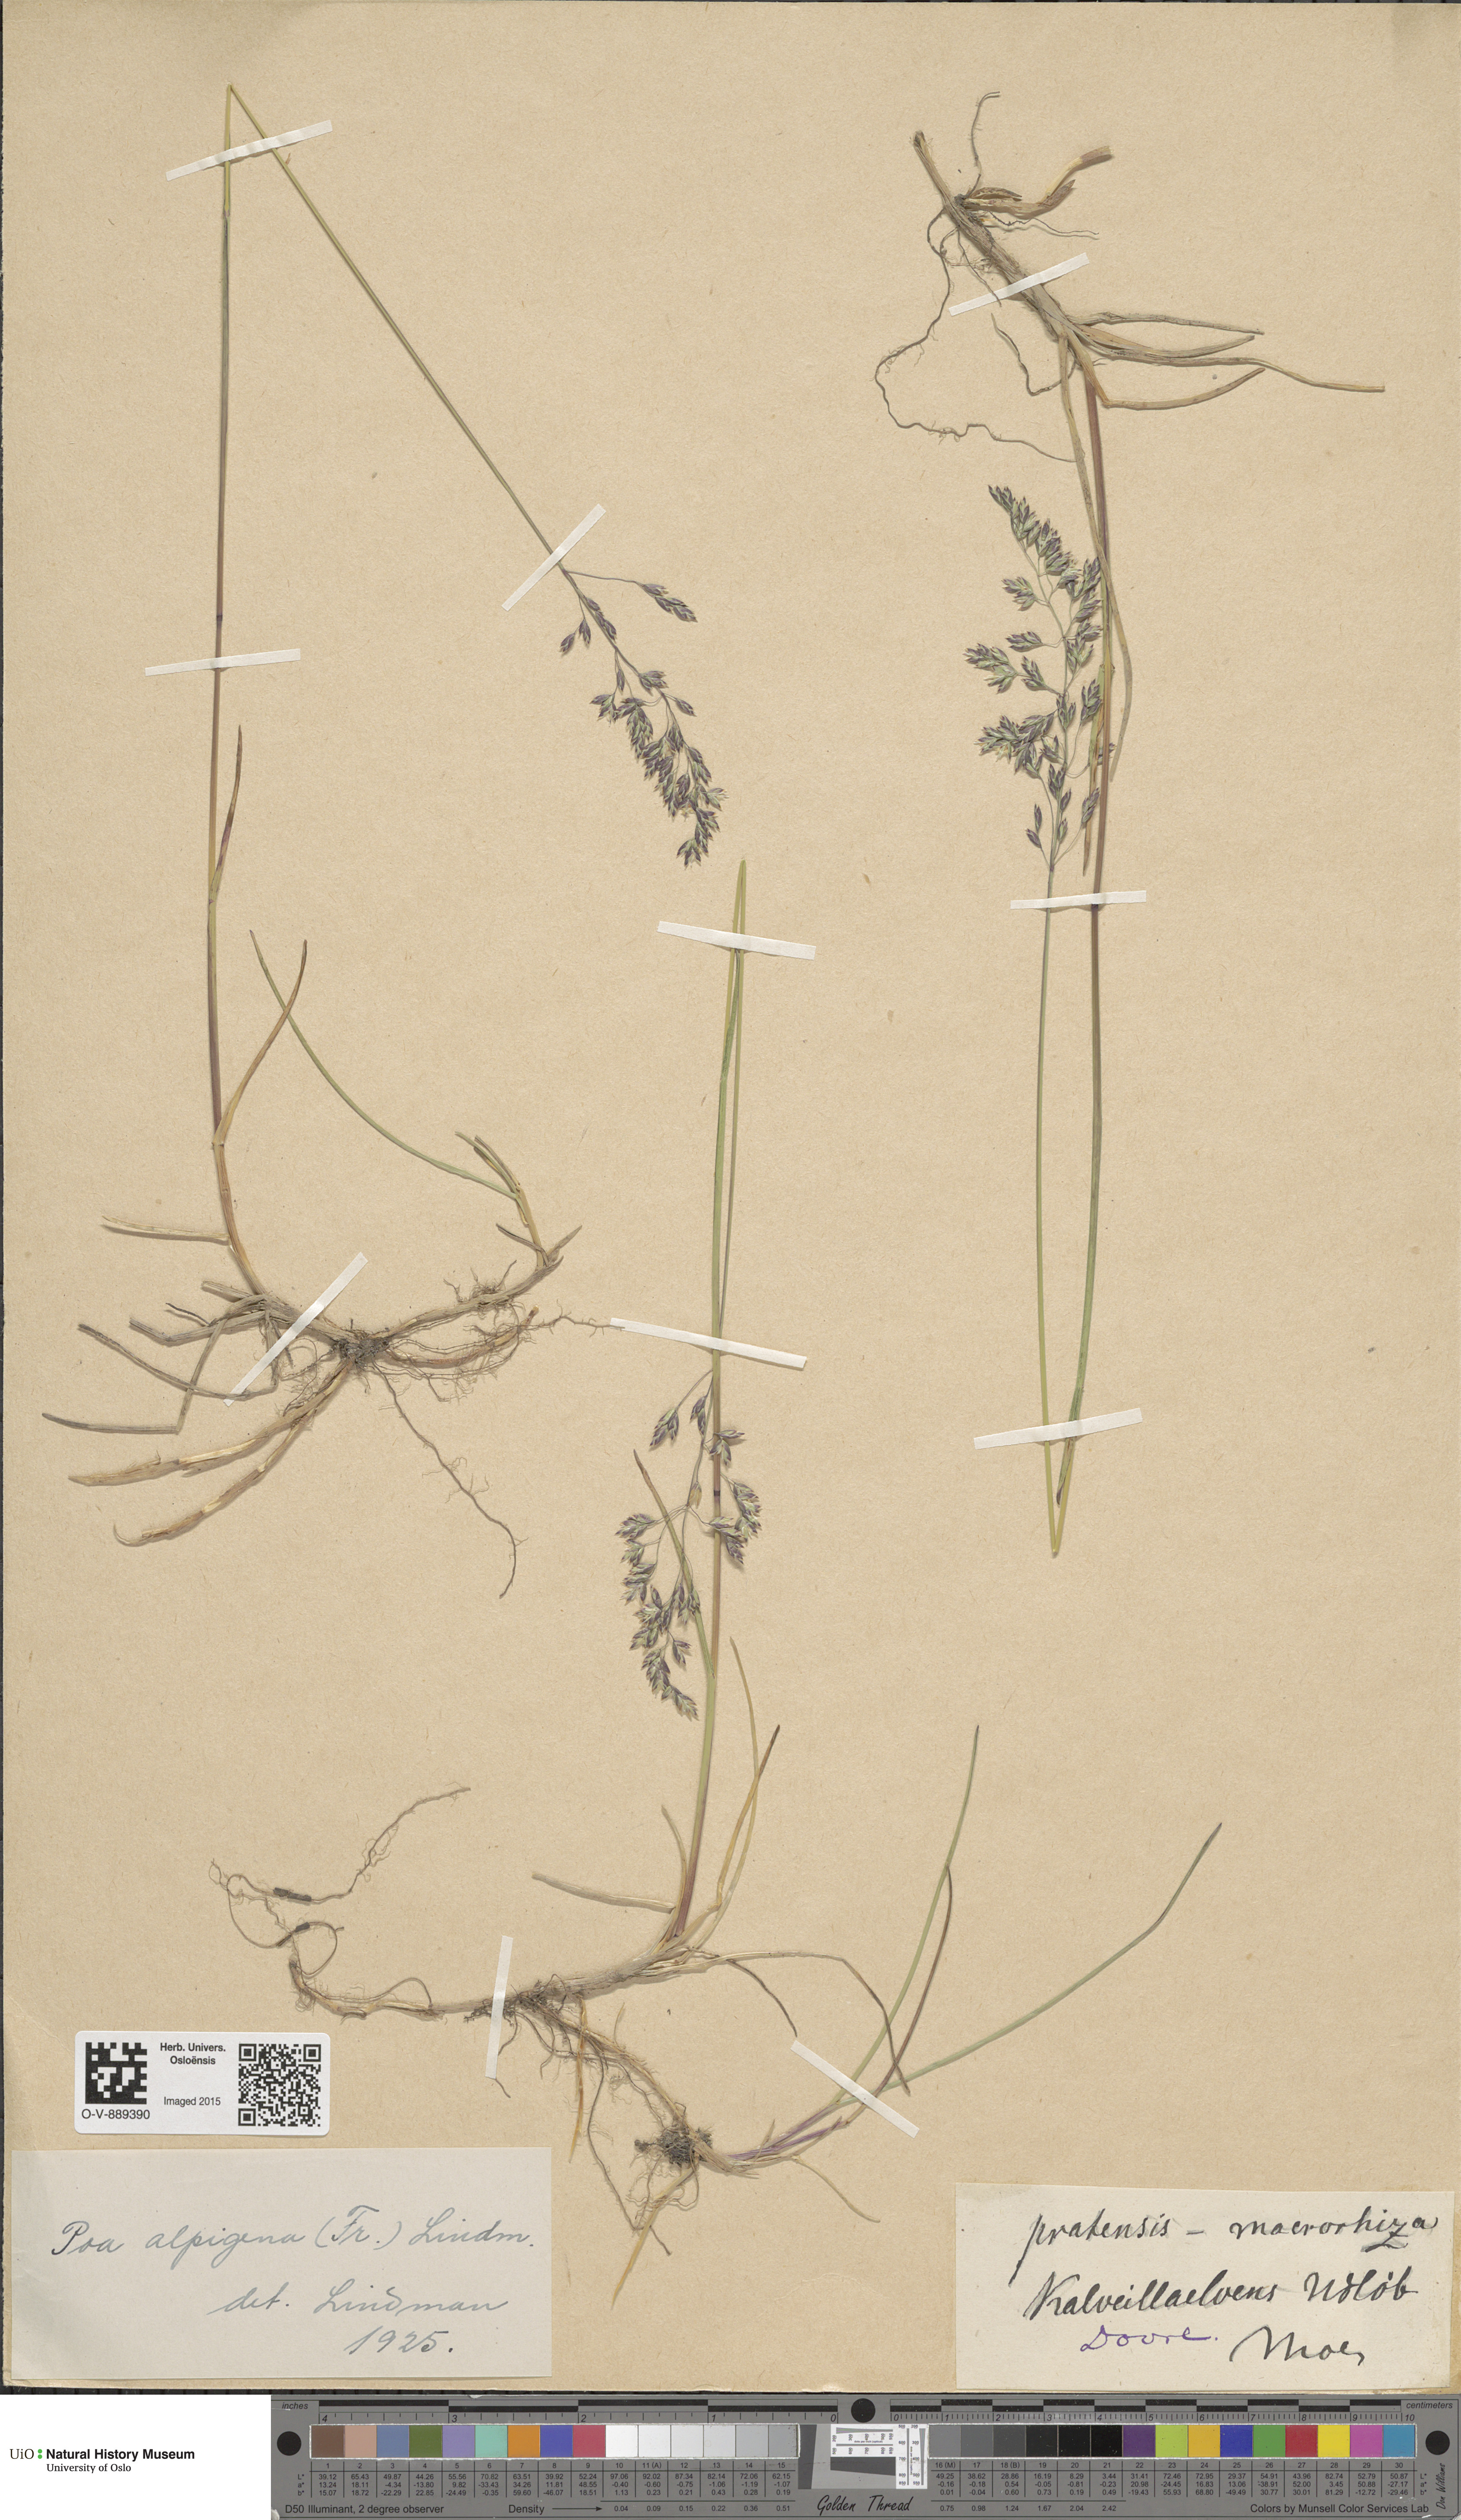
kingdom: Plantae
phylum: Tracheophyta
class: Liliopsida
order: Poales
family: Poaceae
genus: Poa
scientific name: Poa alpigena
